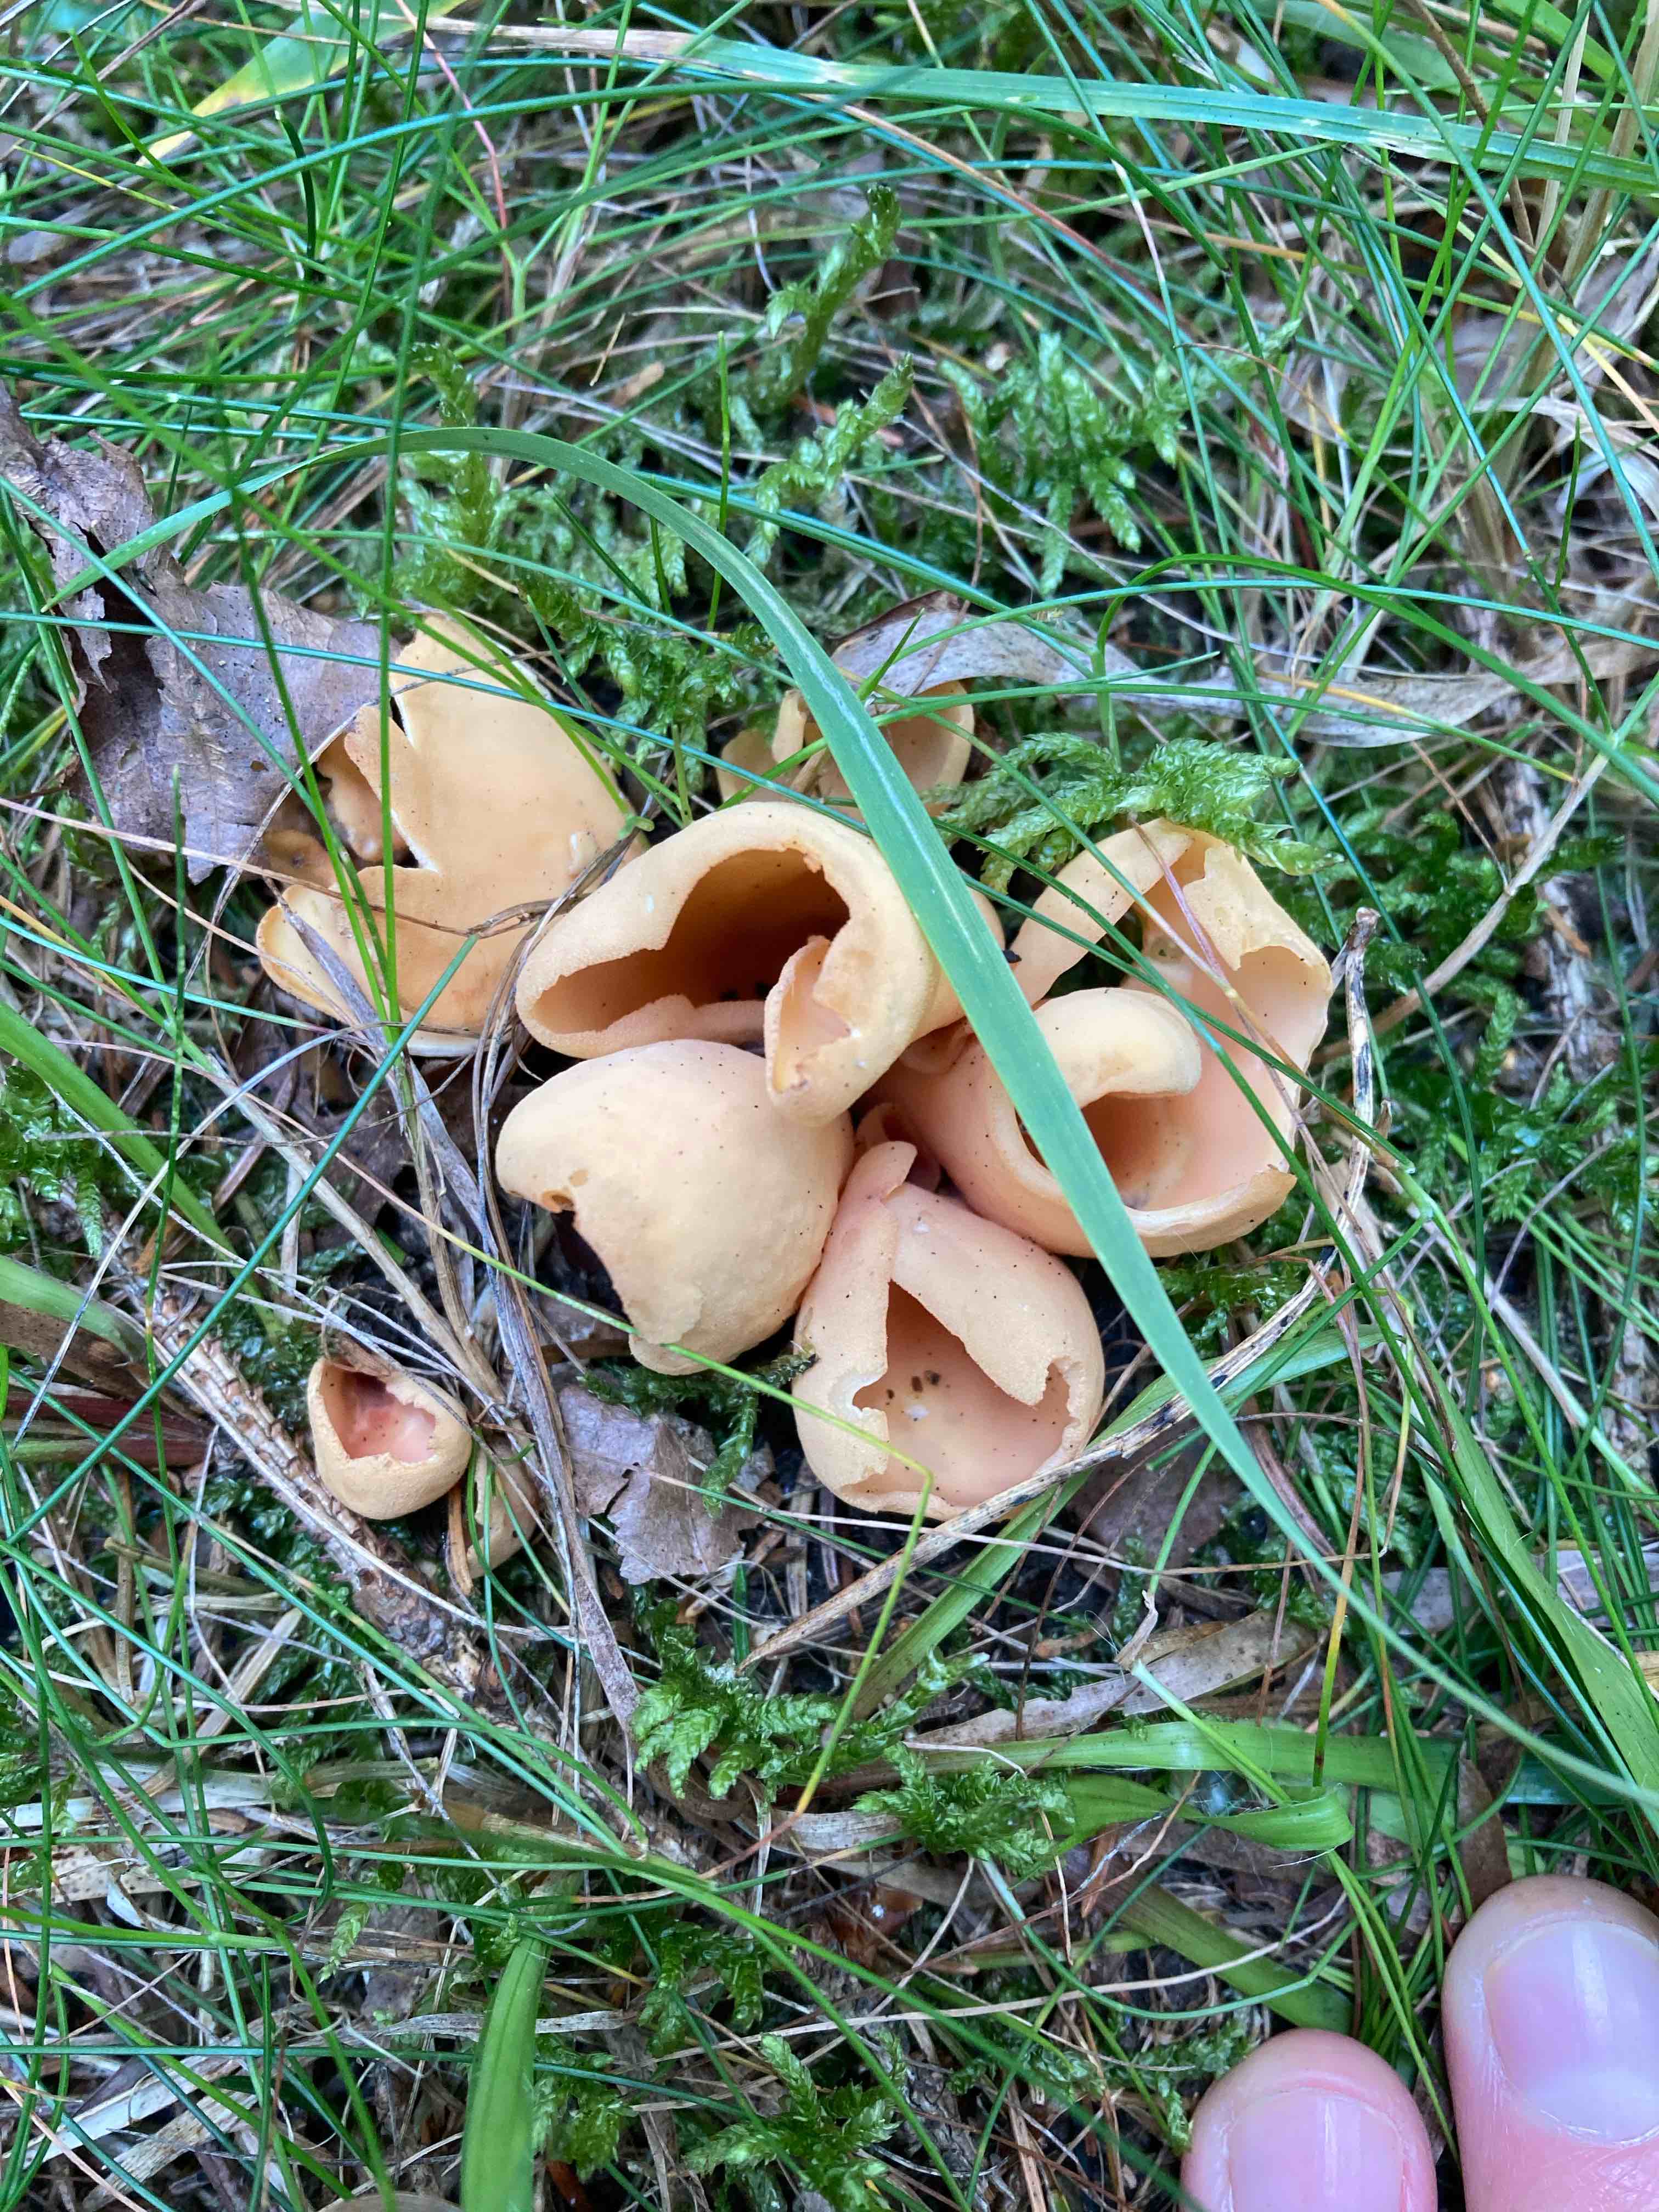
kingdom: Fungi
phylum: Ascomycota
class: Pezizomycetes
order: Pezizales
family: Otideaceae
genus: Otidea
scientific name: Otidea onotica
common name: æsel-ørebæger
